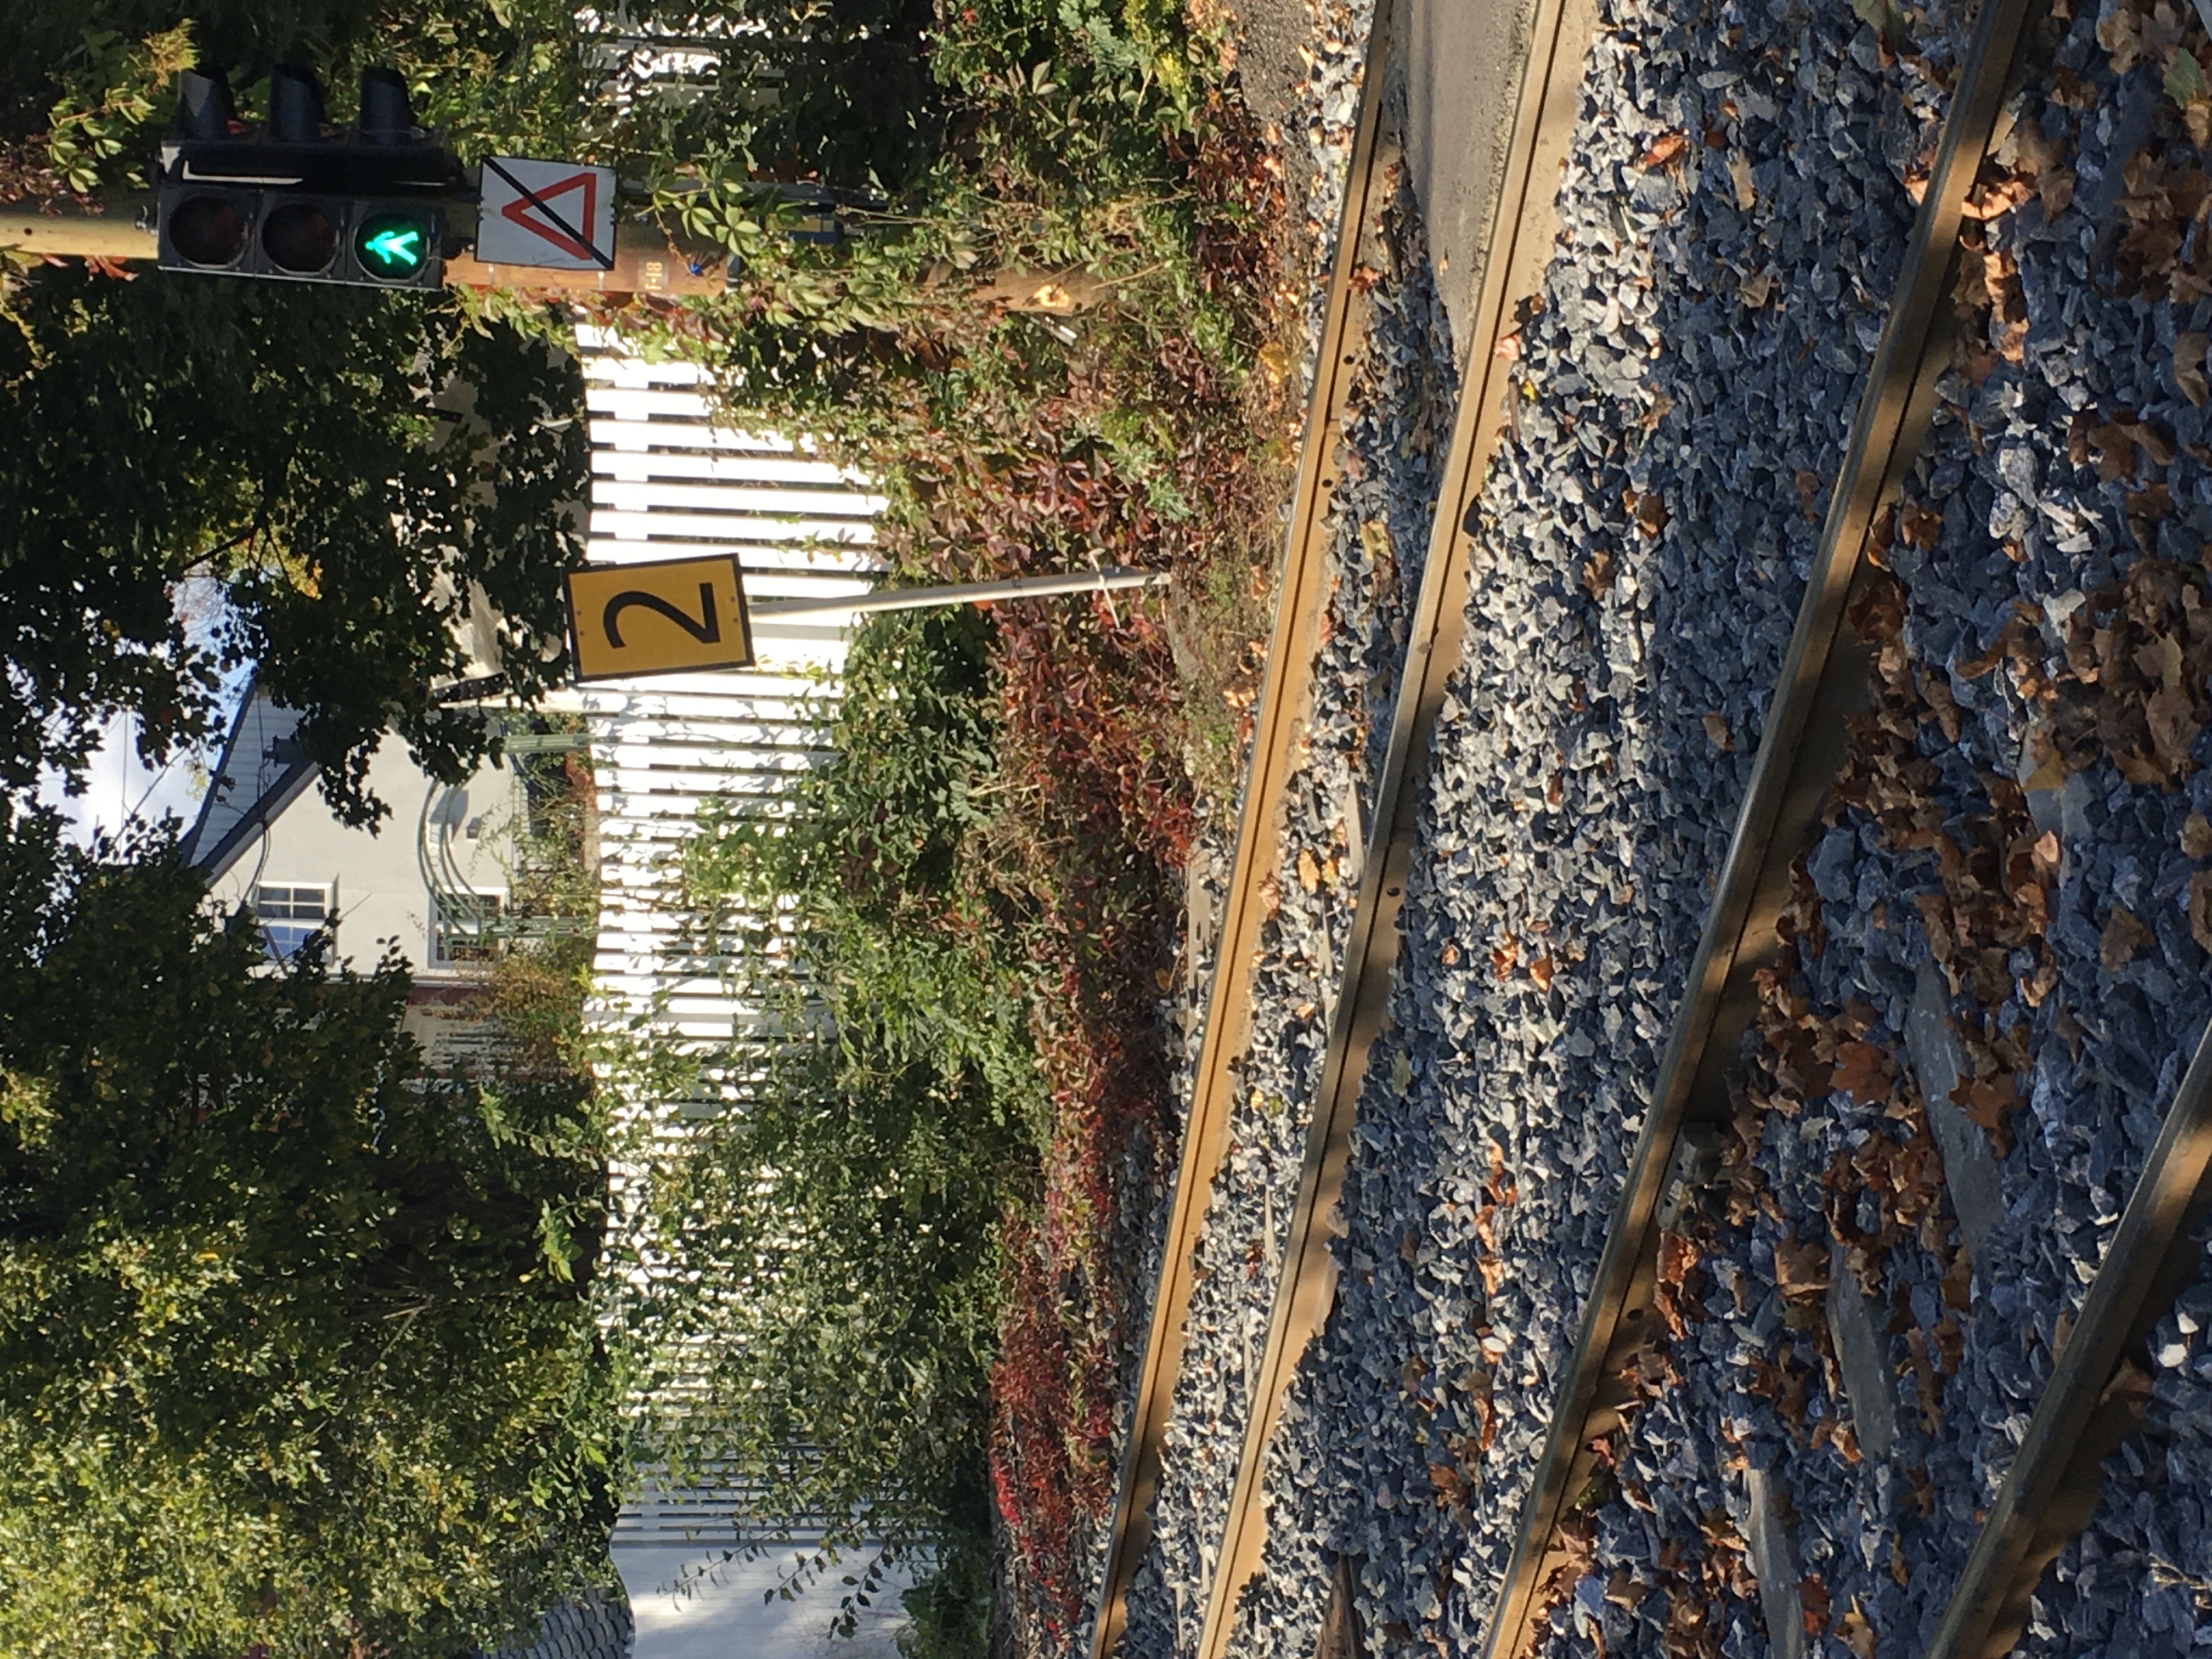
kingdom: Plantae
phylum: Tracheophyta
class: Magnoliopsida
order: Vitales
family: Vitaceae
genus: Parthenocissus
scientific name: Parthenocissus quinquefolia
